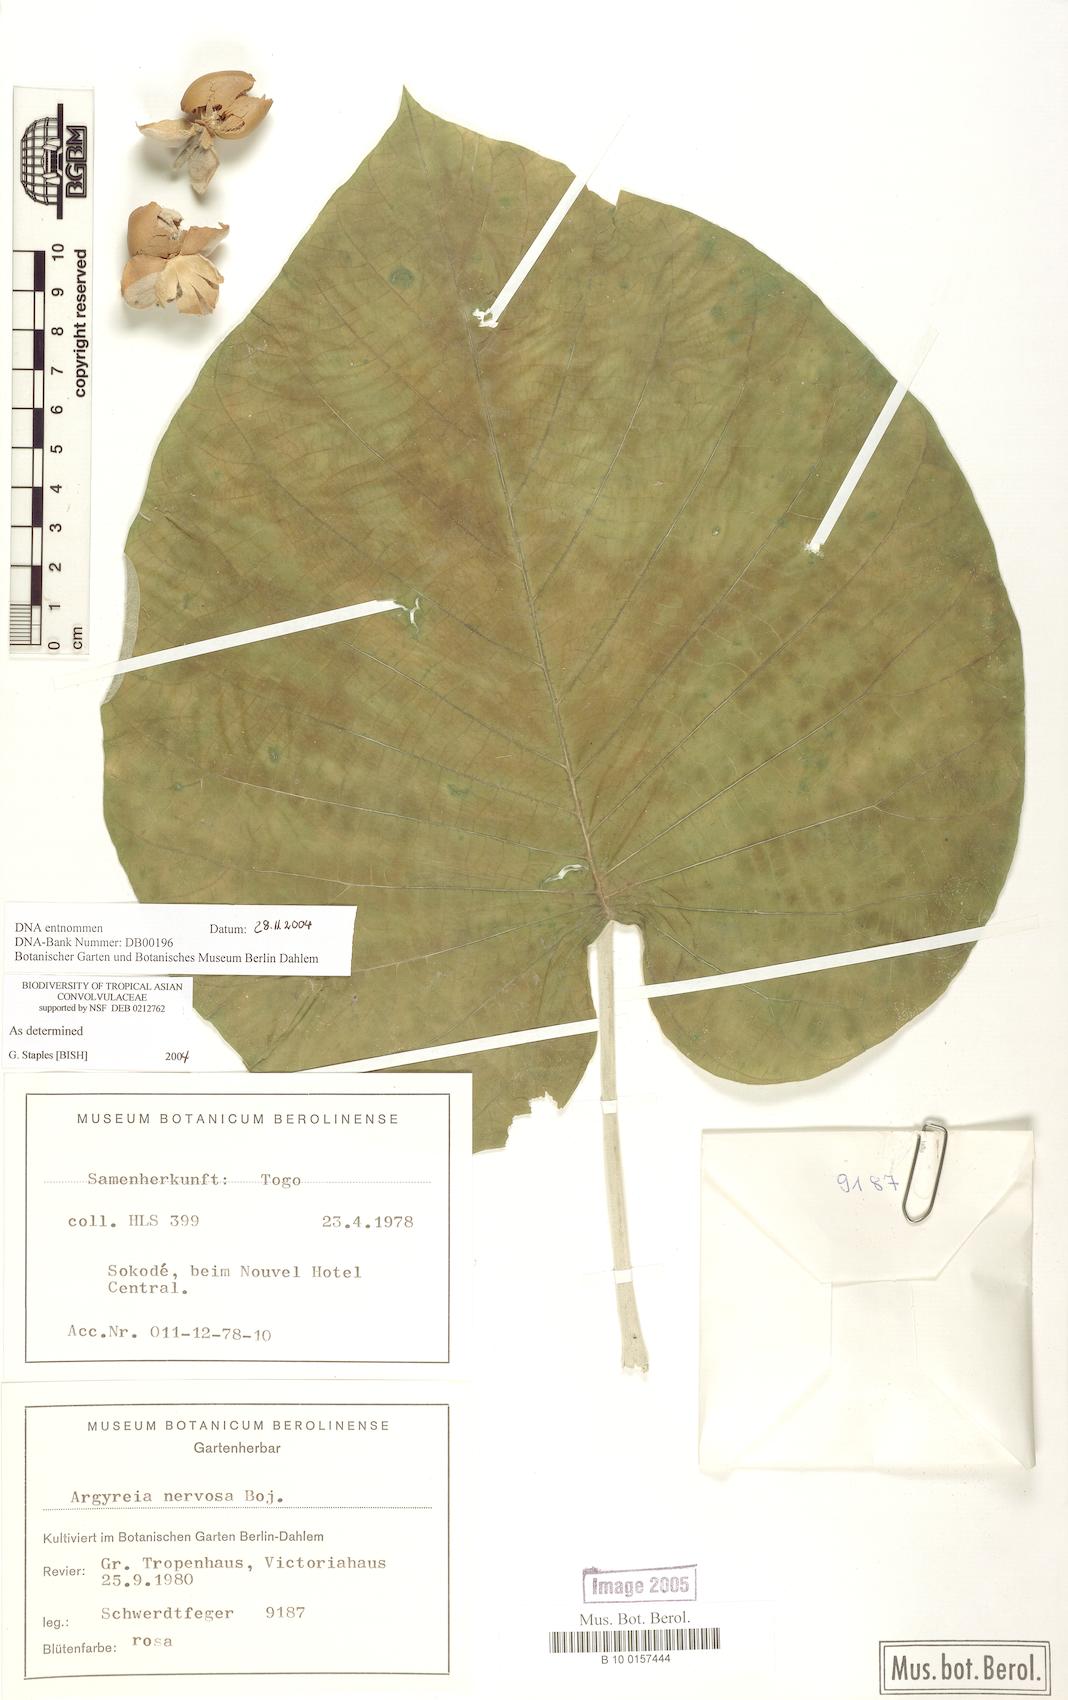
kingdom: Plantae
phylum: Tracheophyta
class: Magnoliopsida
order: Solanales
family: Convolvulaceae
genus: Argyreia
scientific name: Argyreia nervosa
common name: Elephant creeper
